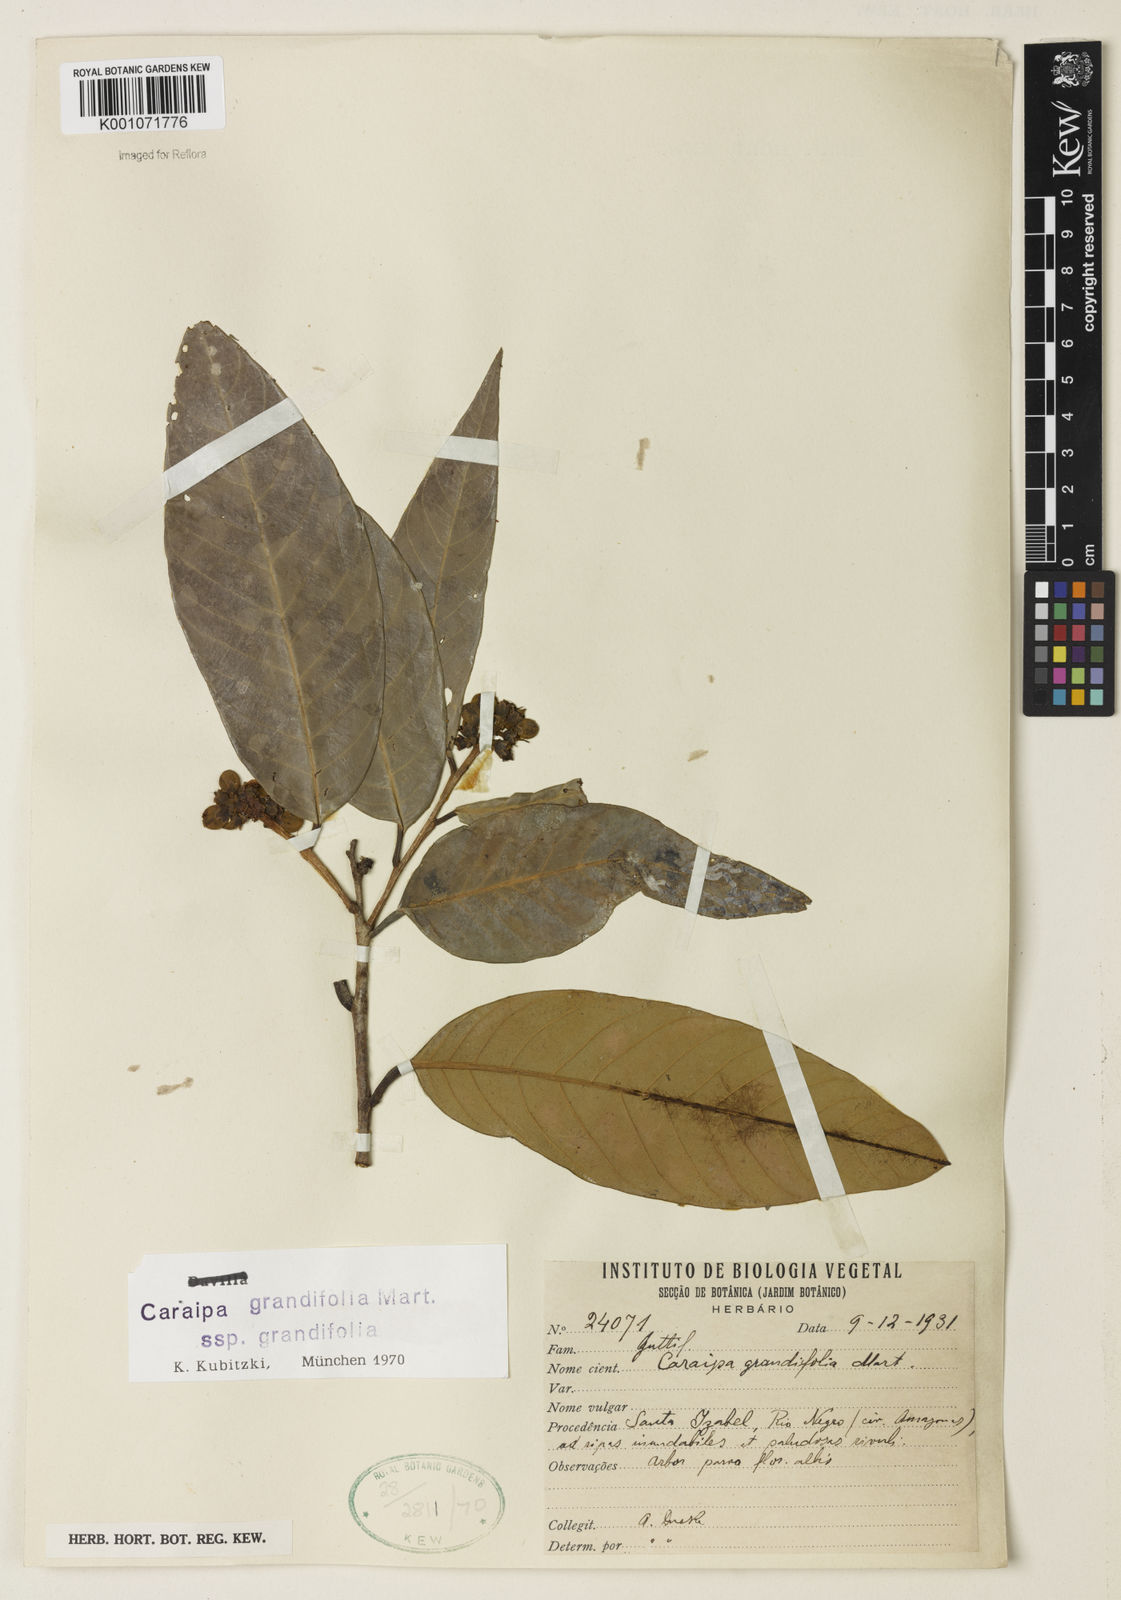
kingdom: Plantae
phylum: Tracheophyta
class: Magnoliopsida
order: Malpighiales
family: Calophyllaceae
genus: Caraipa
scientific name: Caraipa grandifolia
